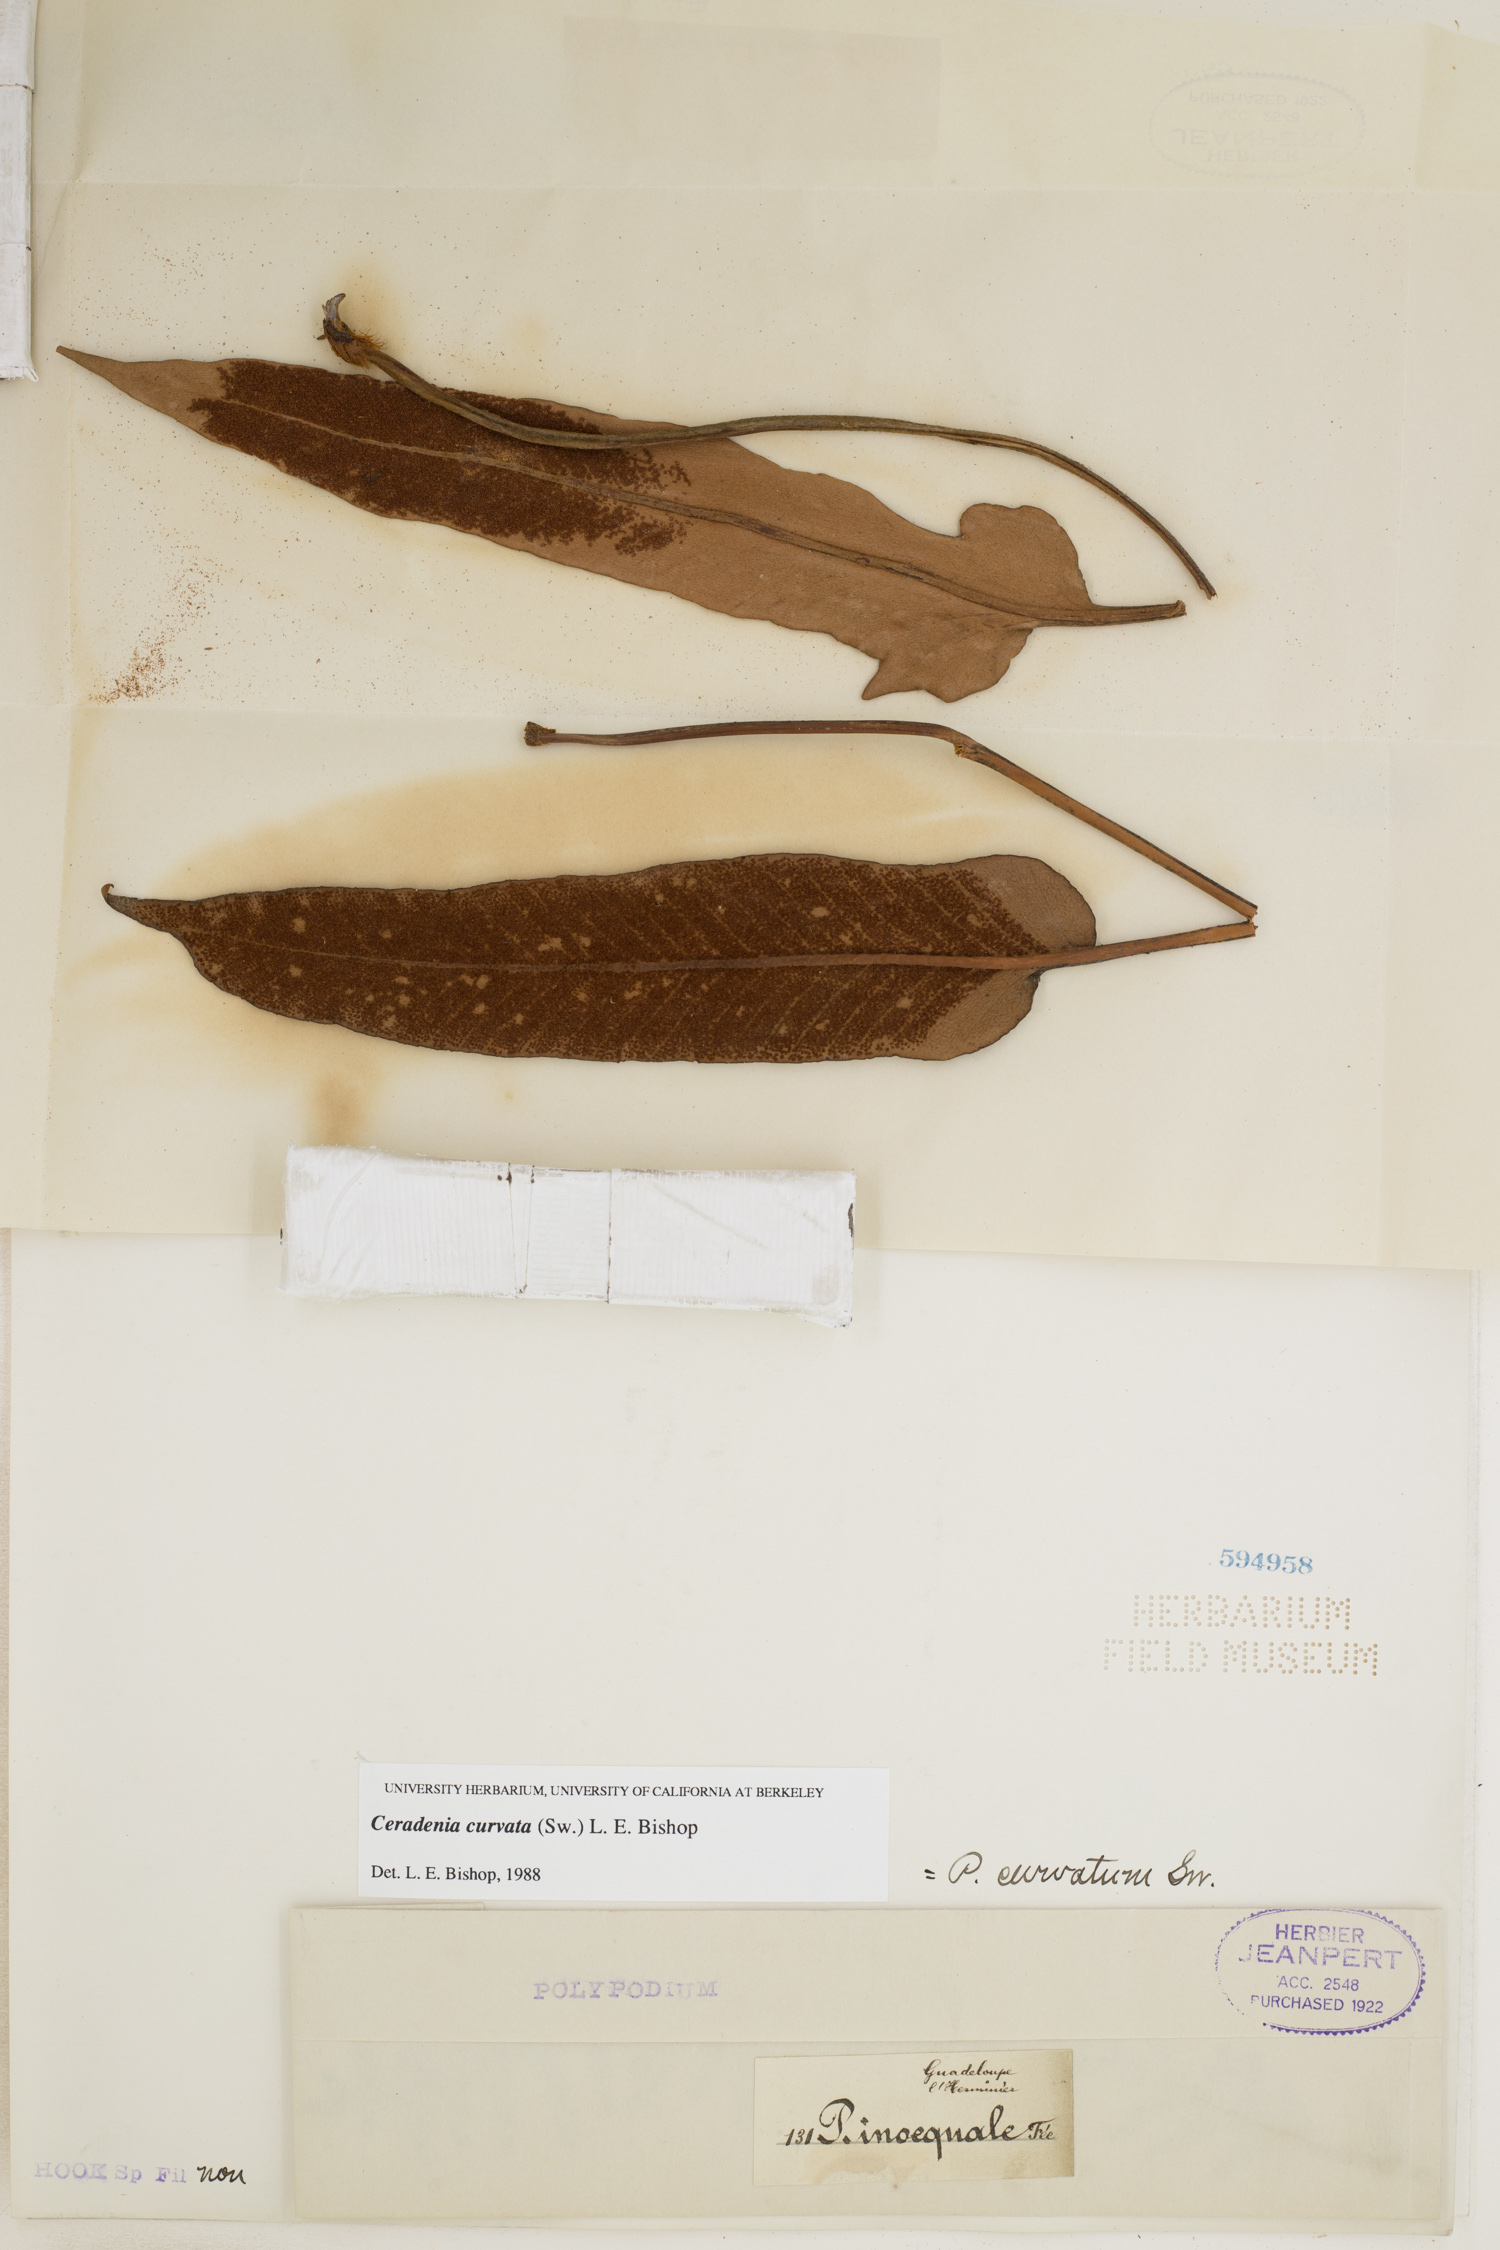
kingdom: Plantae
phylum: Tracheophyta
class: Polypodiopsida
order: Polypodiales
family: Polypodiaceae
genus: Ceradenia
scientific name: Ceradenia curvata
